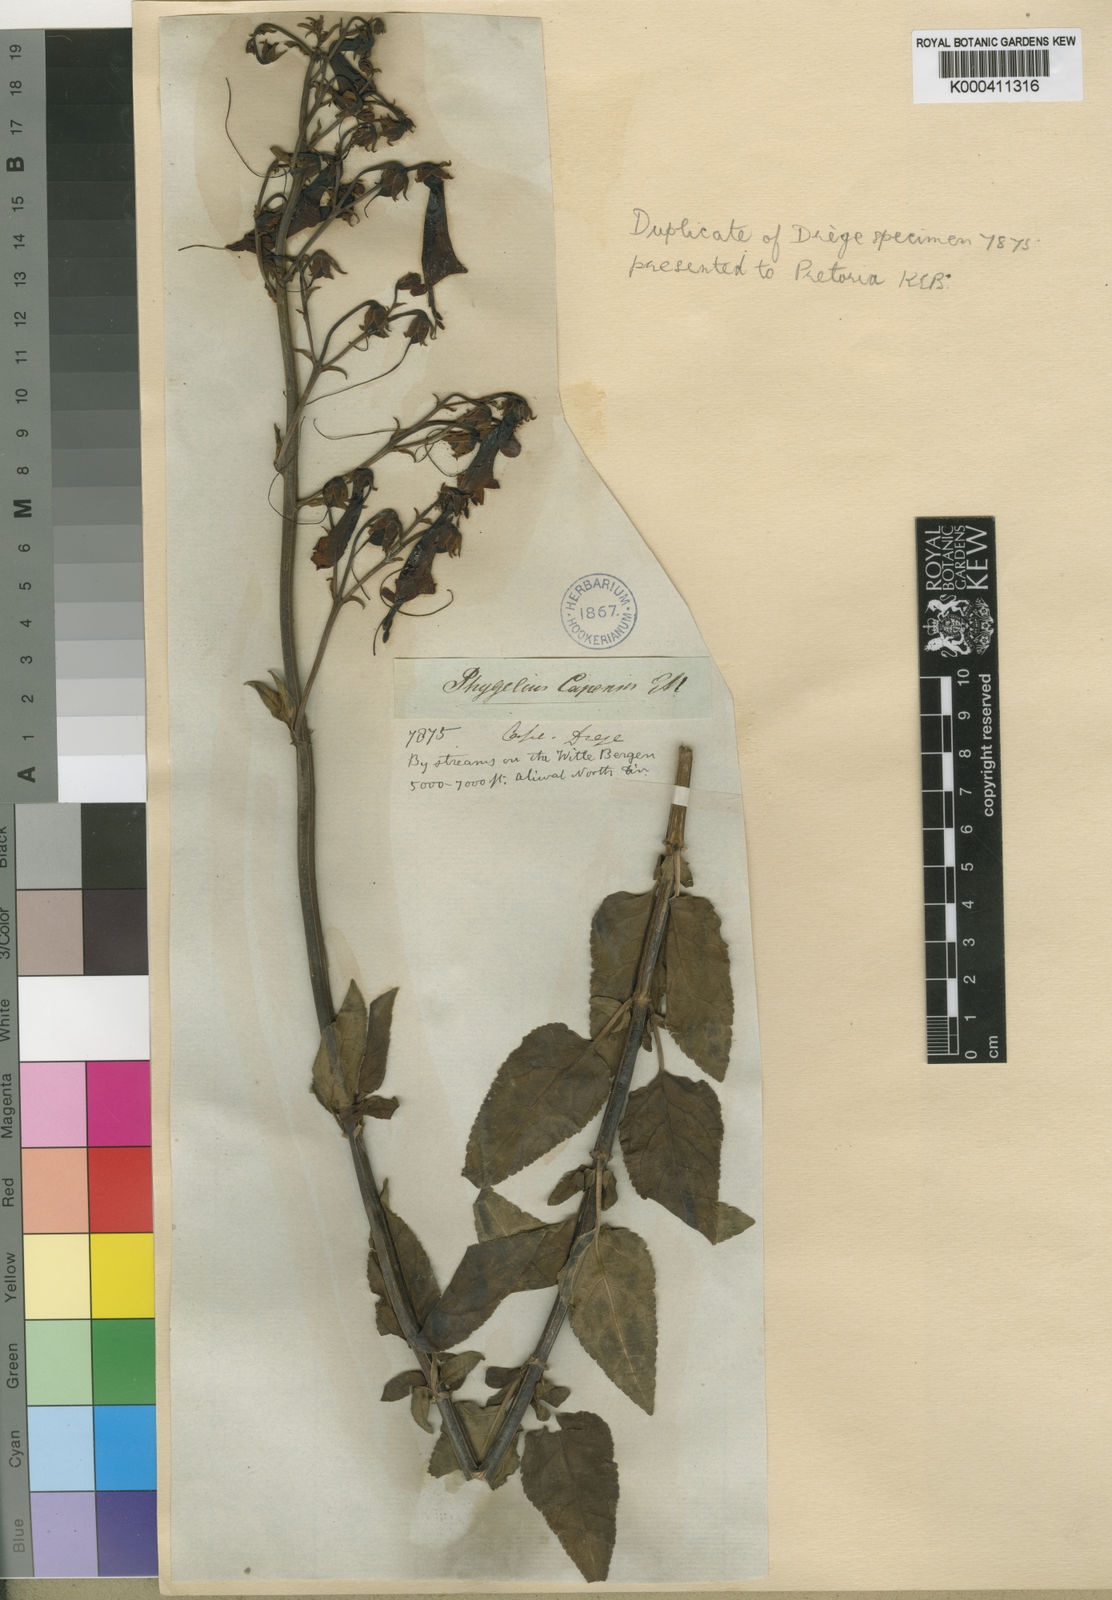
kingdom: Plantae
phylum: Tracheophyta
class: Magnoliopsida
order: Lamiales
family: Scrophulariaceae
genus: Phygelius
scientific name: Phygelius capensis
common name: Cape figwort
